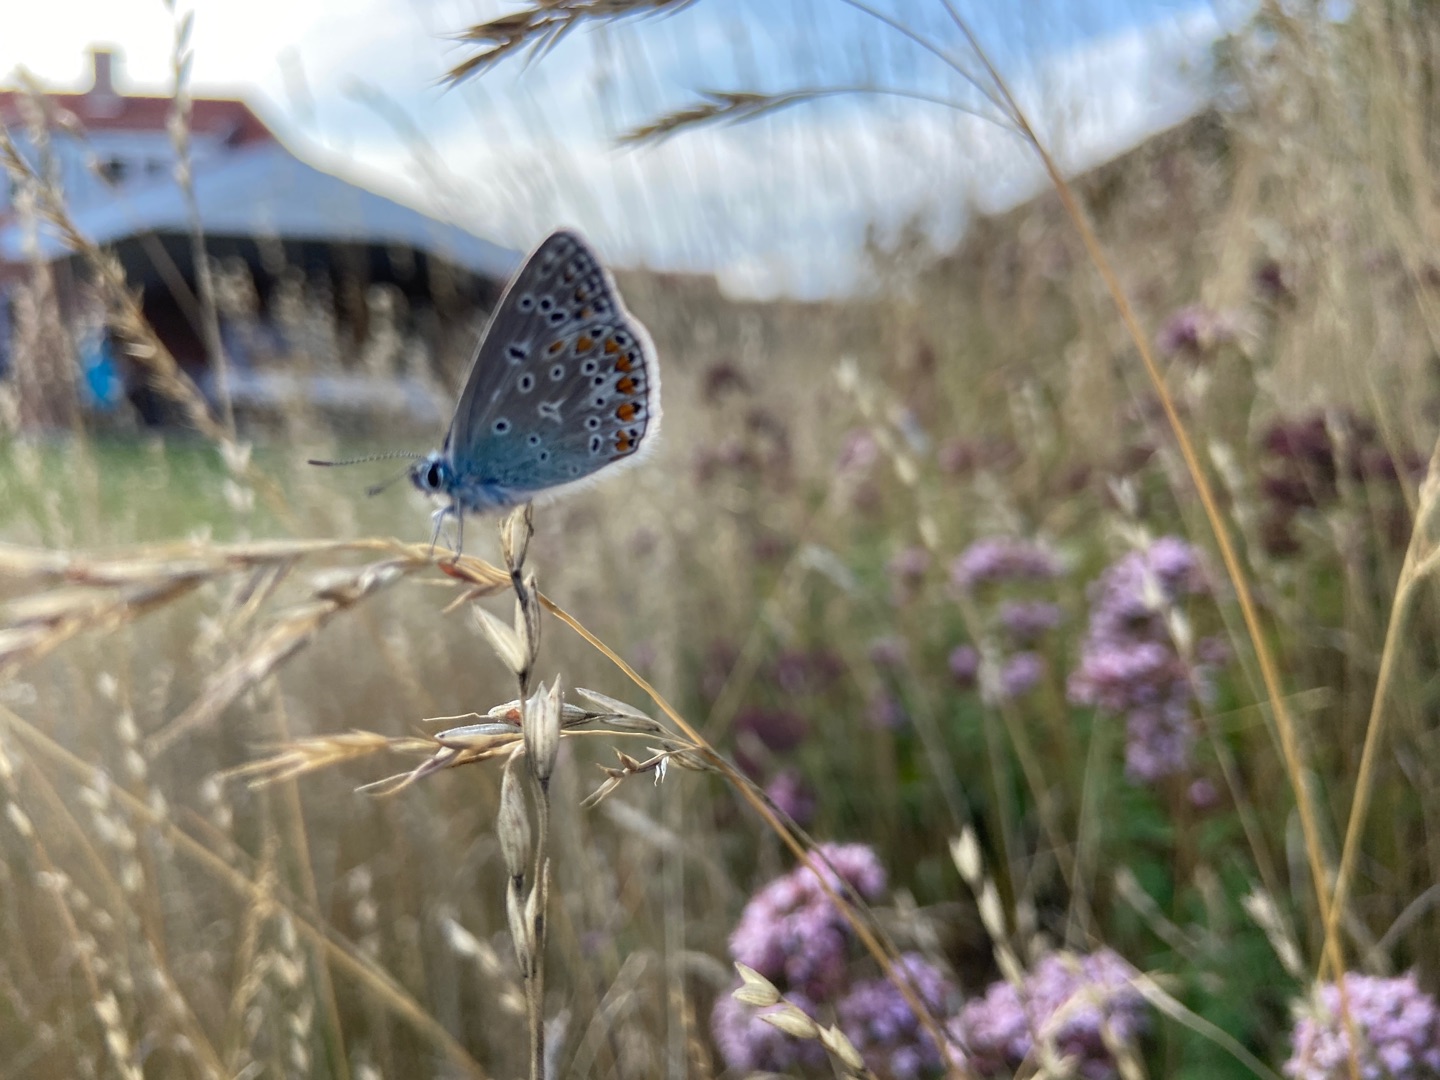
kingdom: Animalia
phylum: Arthropoda
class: Insecta
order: Lepidoptera
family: Lycaenidae
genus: Polyommatus
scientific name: Polyommatus icarus
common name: Almindelig blåfugl
